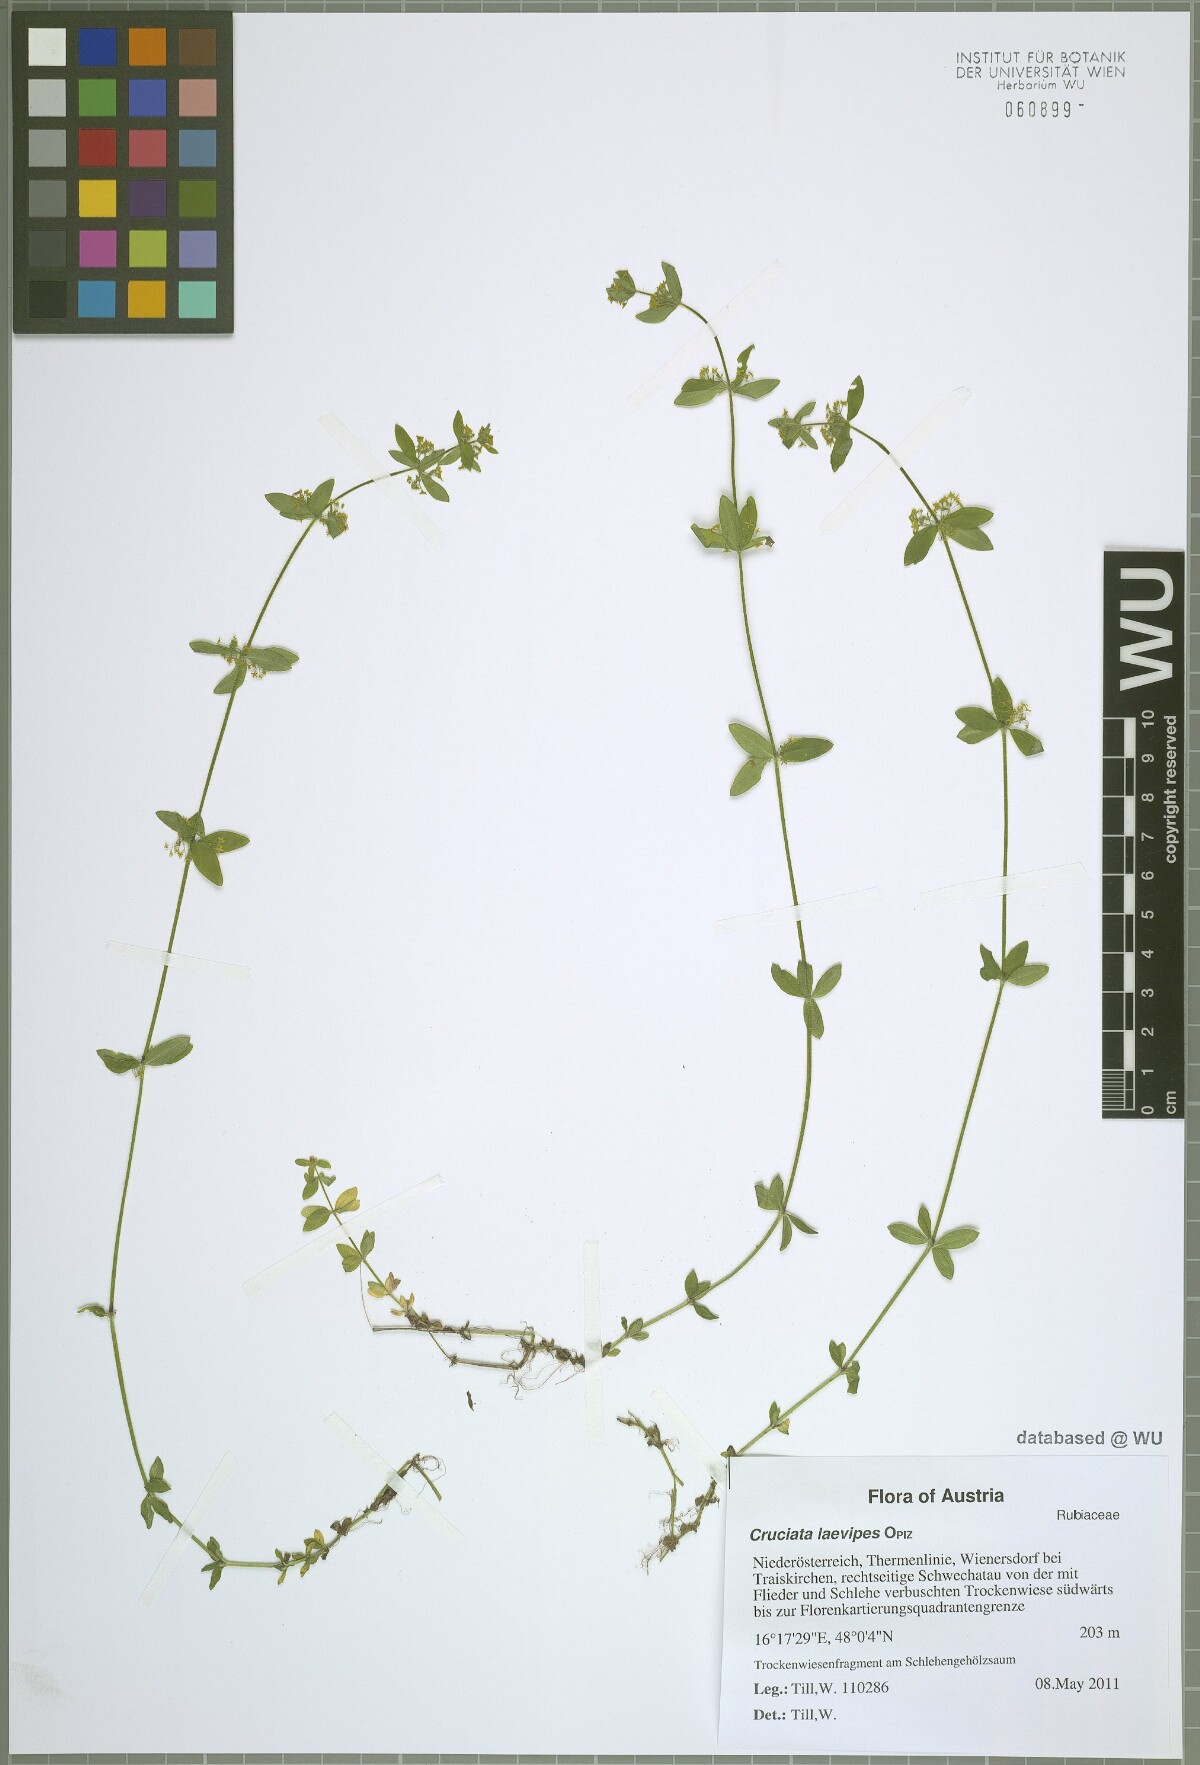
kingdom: Plantae
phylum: Tracheophyta
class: Magnoliopsida
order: Gentianales
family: Rubiaceae
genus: Cruciata
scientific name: Cruciata laevipes
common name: Crosswort
